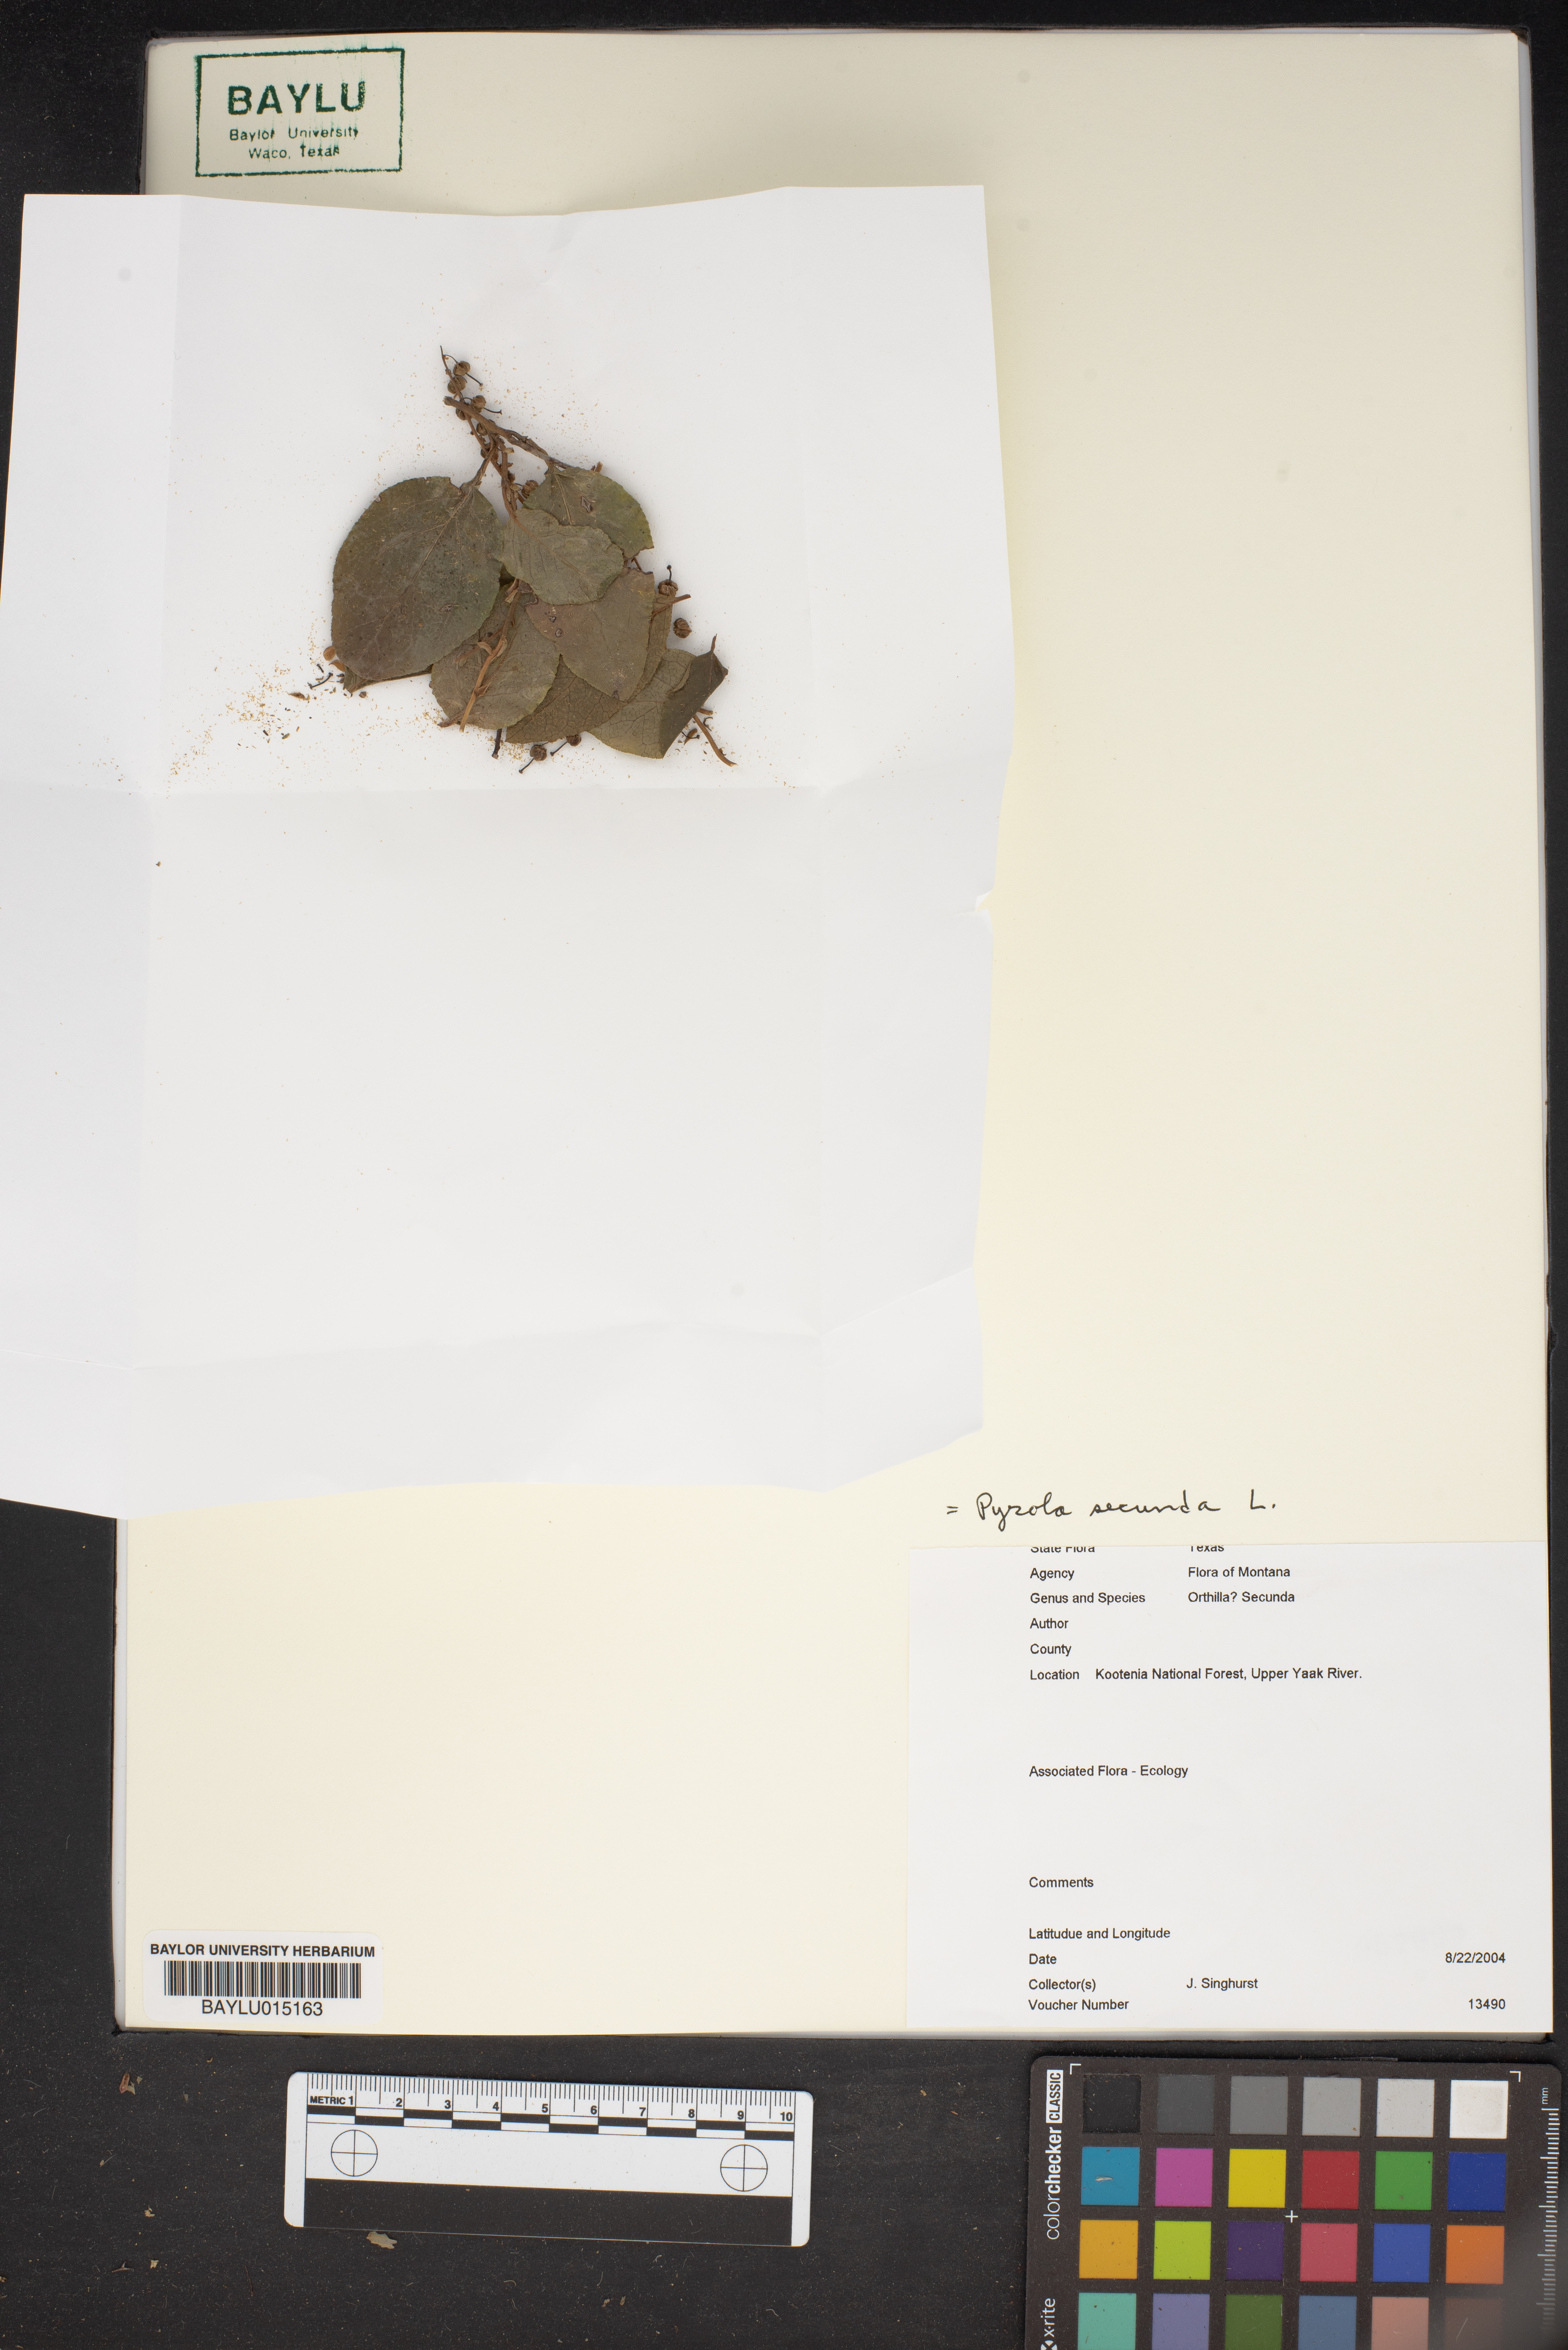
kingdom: Plantae
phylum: Tracheophyta
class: Magnoliopsida
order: Ericales
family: Ericaceae
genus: Orthilia
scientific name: Orthilia secunda
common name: One-sided orthilia
